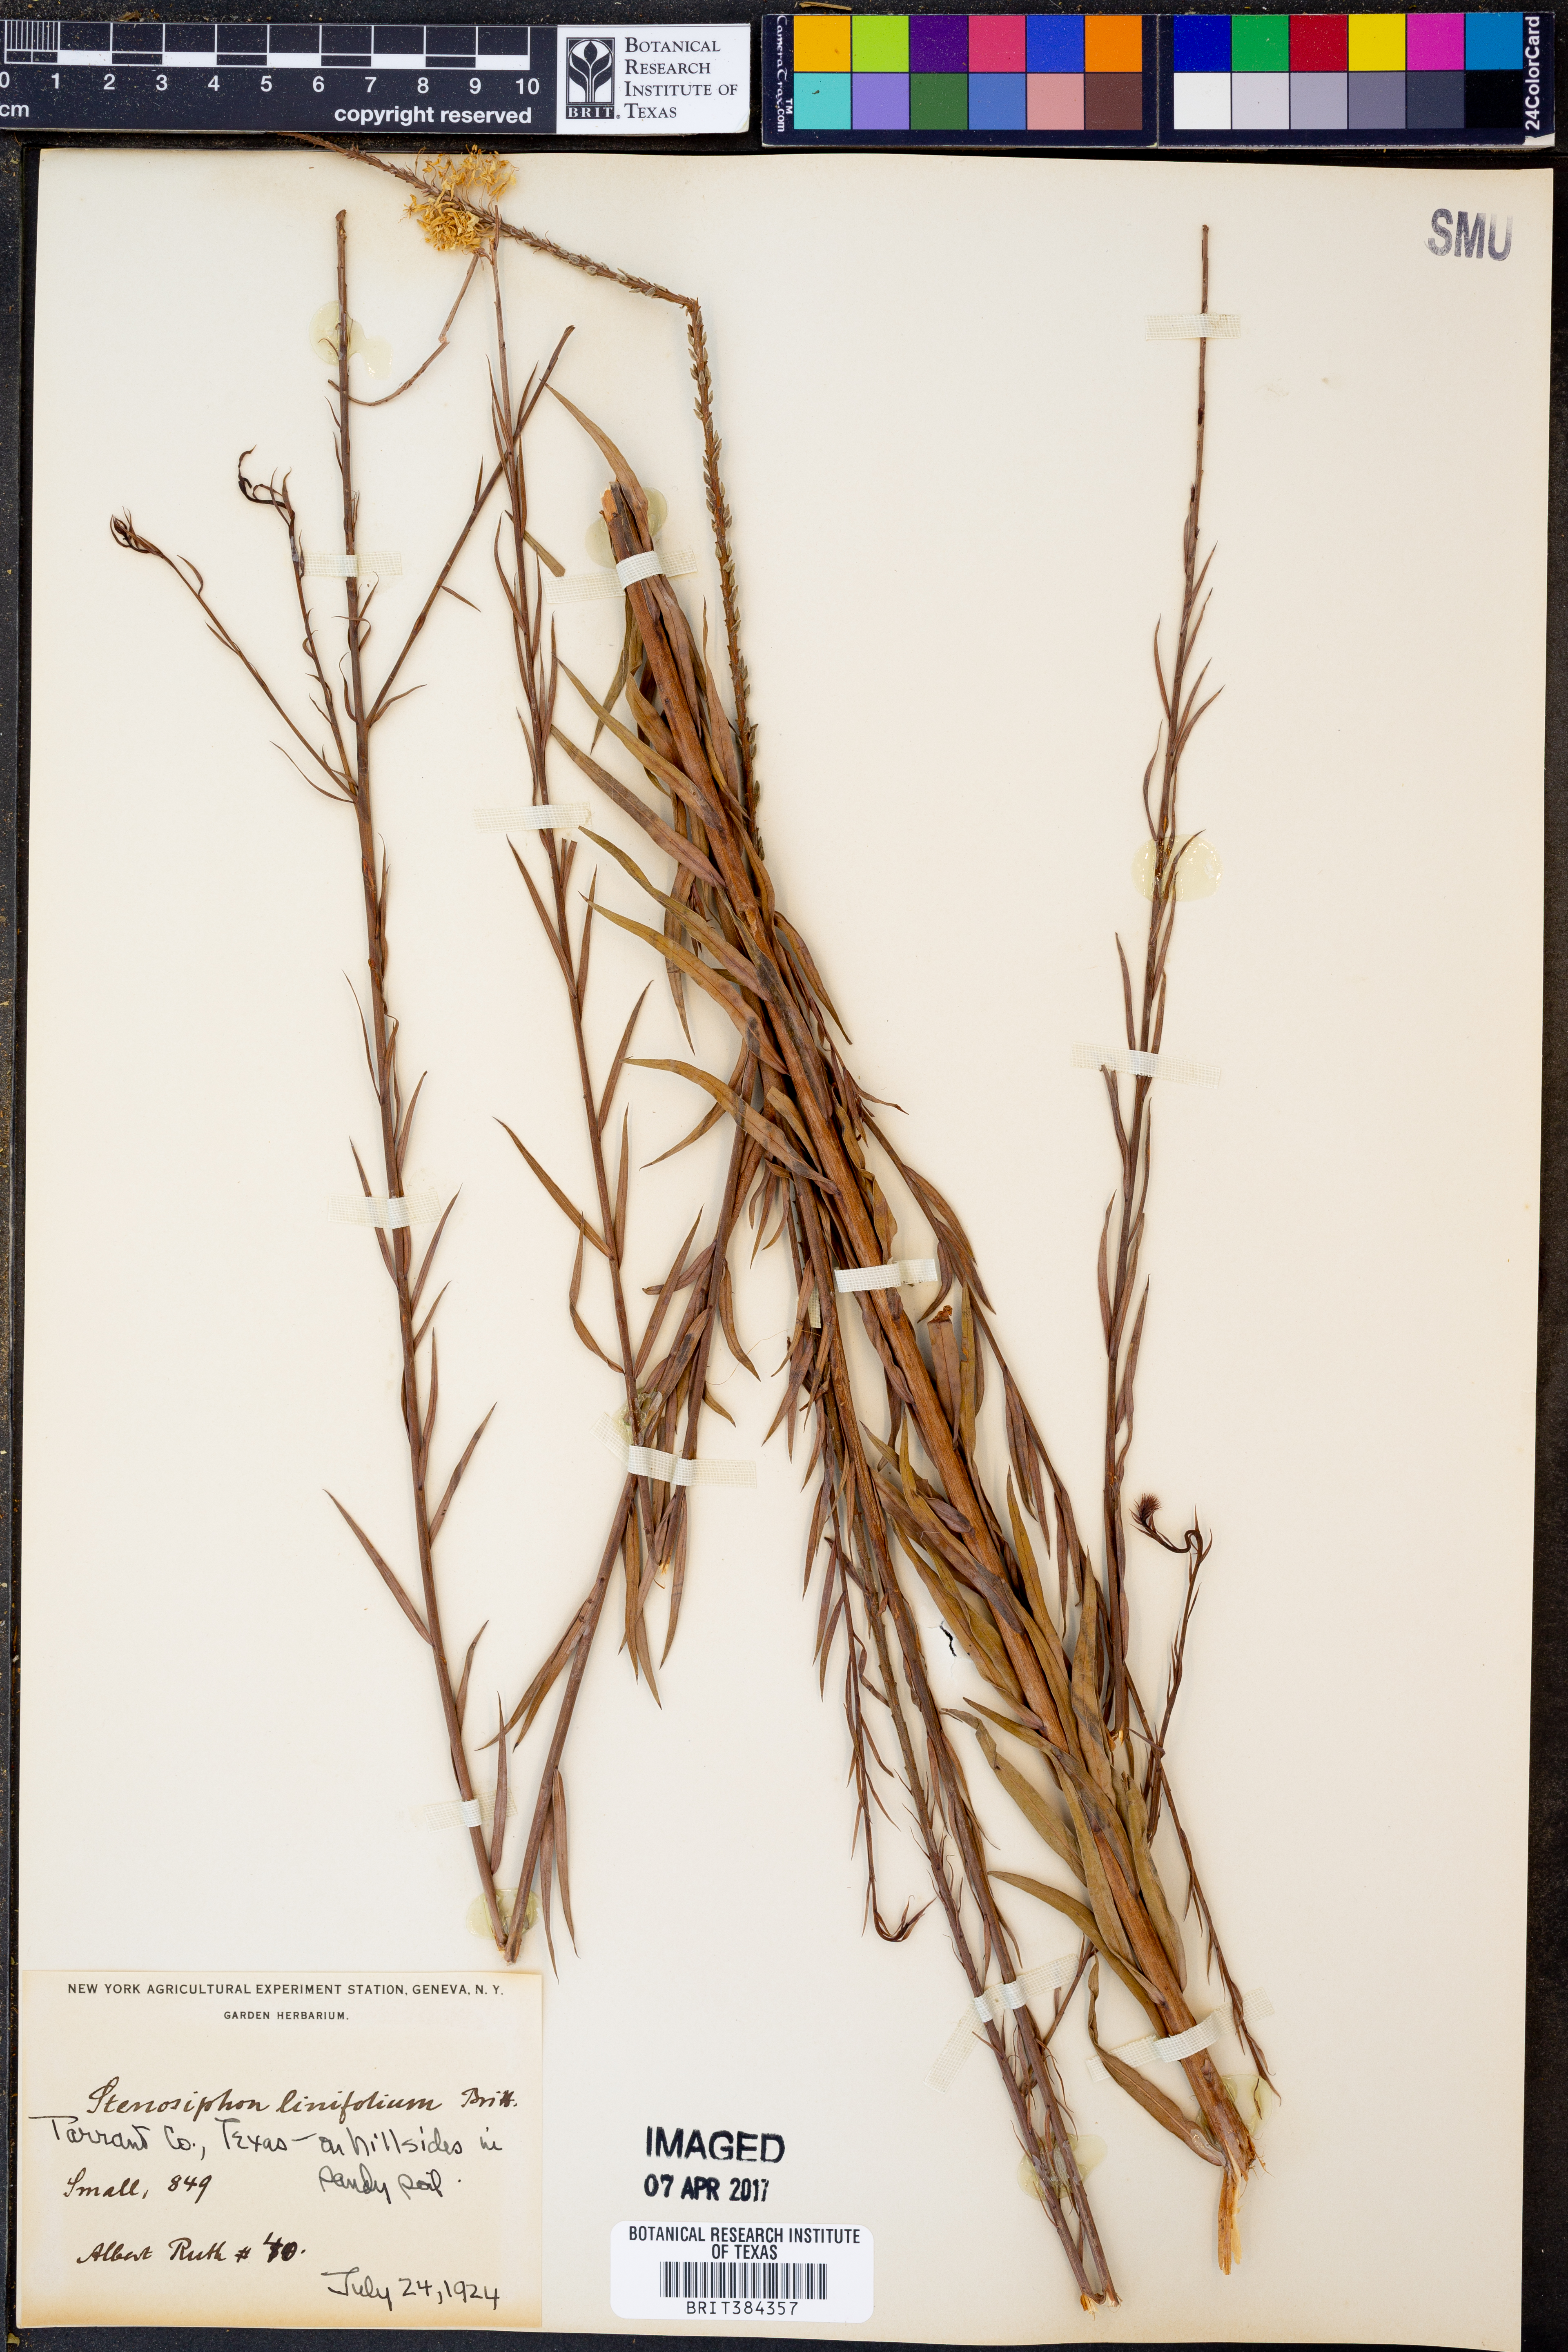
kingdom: Plantae
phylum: Tracheophyta
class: Magnoliopsida
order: Myrtales
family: Onagraceae
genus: Oenothera
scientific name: Oenothera glaucifolia
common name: False gaura
